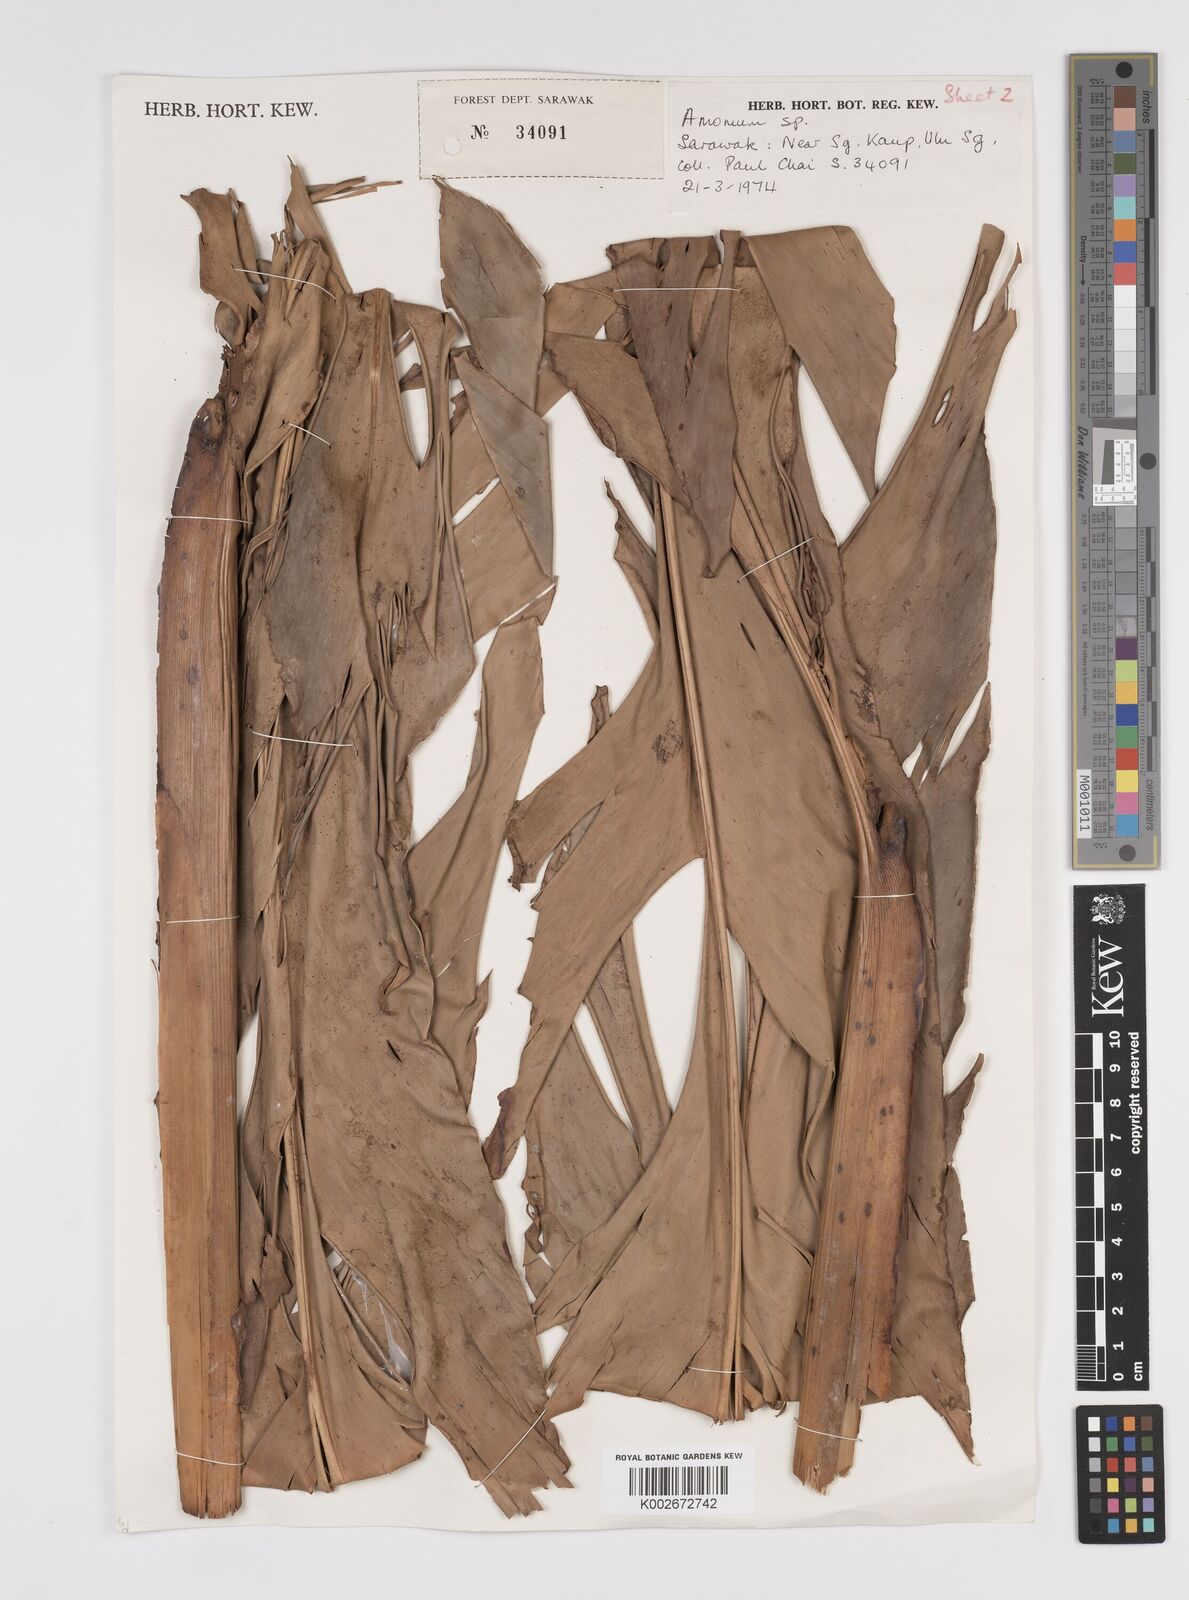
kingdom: Plantae
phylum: Tracheophyta
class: Liliopsida
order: Zingiberales
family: Zingiberaceae
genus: Etlingera
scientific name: Etlingera coccinea
